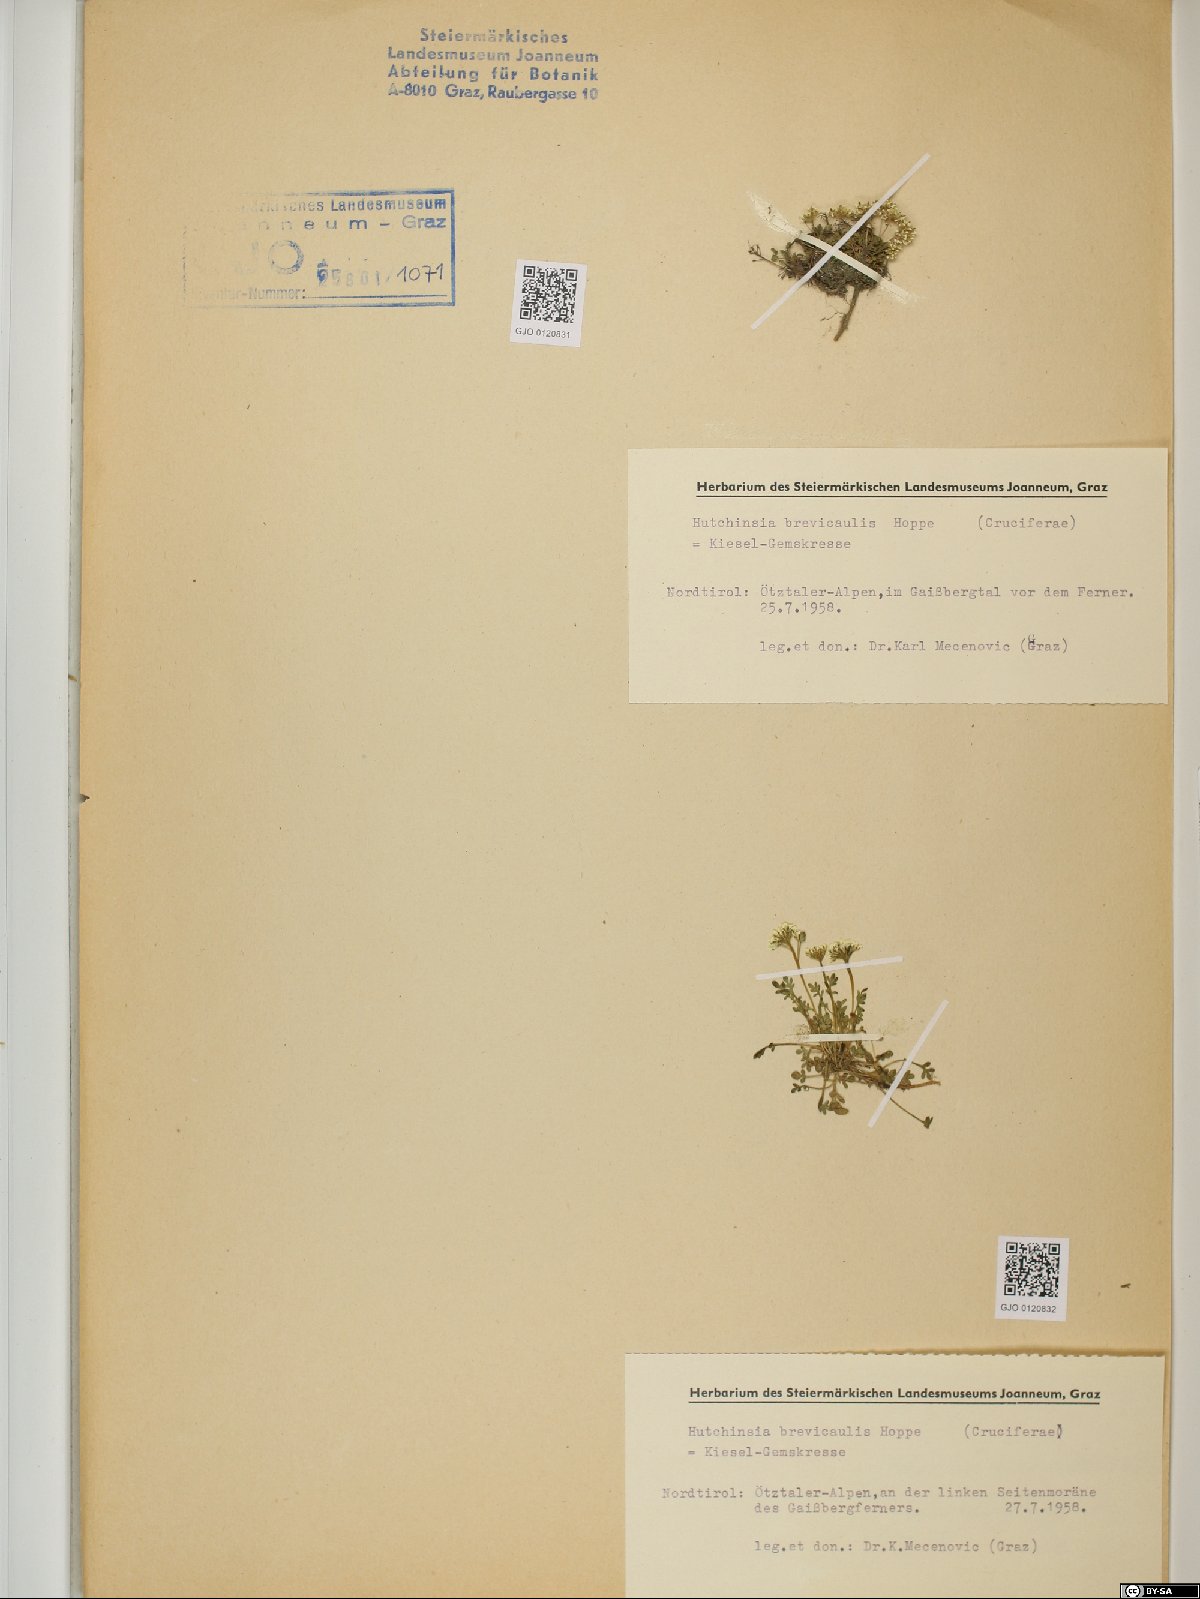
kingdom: Plantae
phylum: Tracheophyta
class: Magnoliopsida
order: Brassicales
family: Brassicaceae
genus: Hornungia
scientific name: Hornungia alpina
